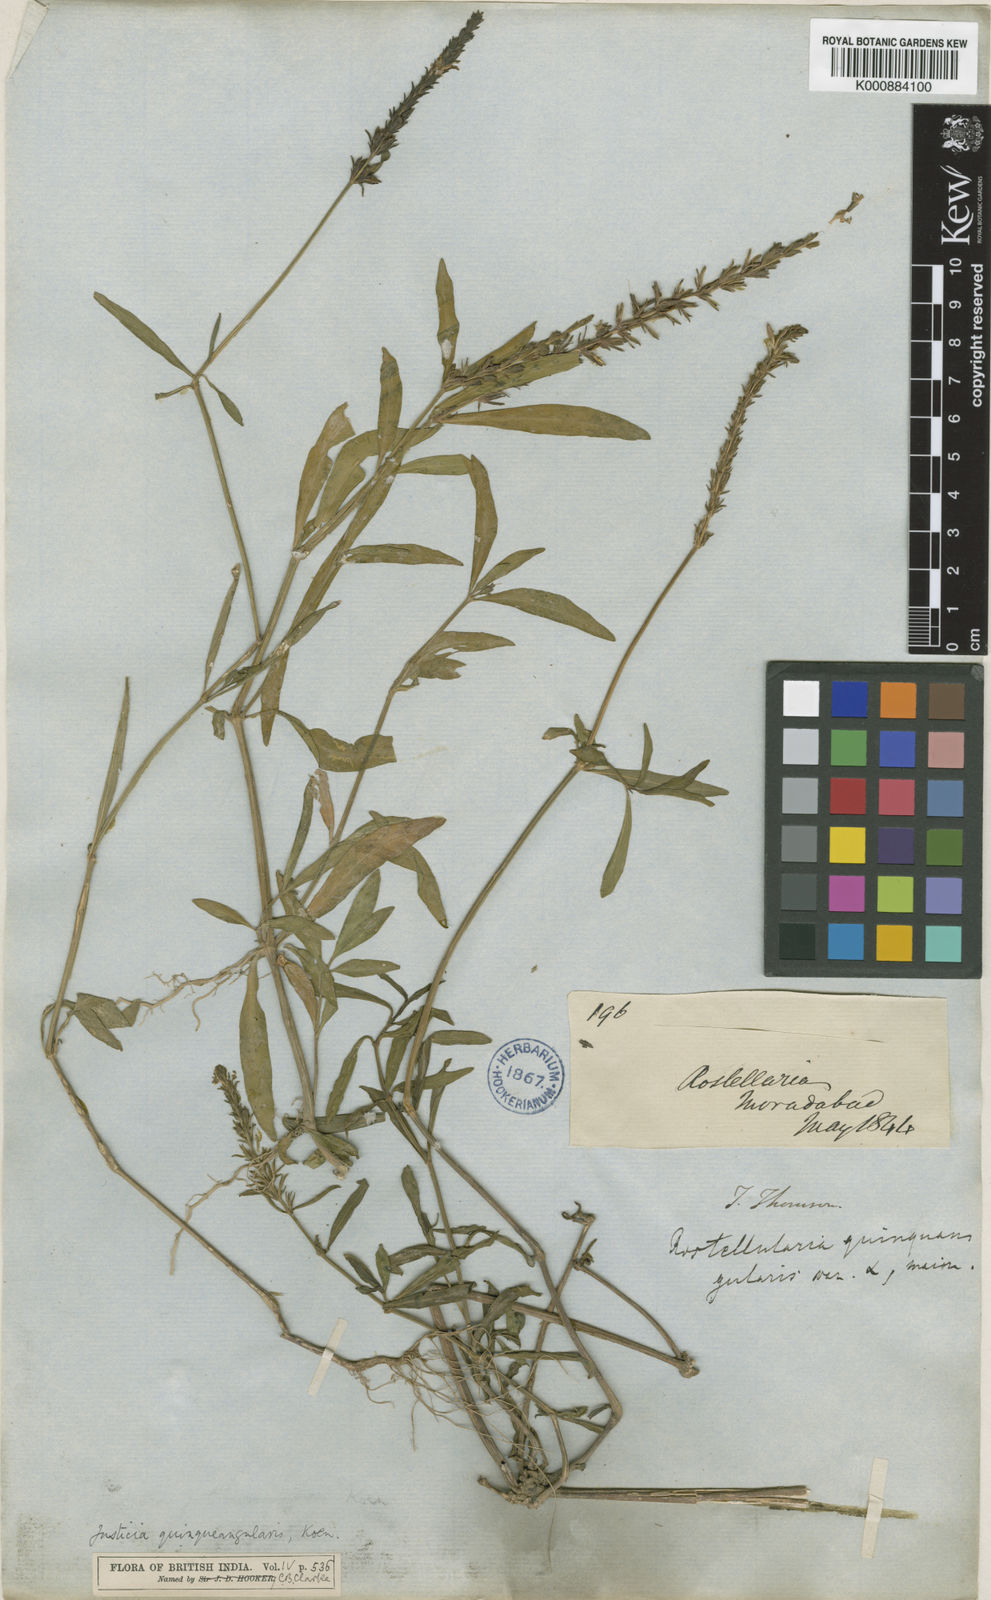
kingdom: Plantae
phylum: Tracheophyta
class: Magnoliopsida
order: Lamiales
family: Acanthaceae
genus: Rostellularia
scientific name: Rostellularia quinquangularis
